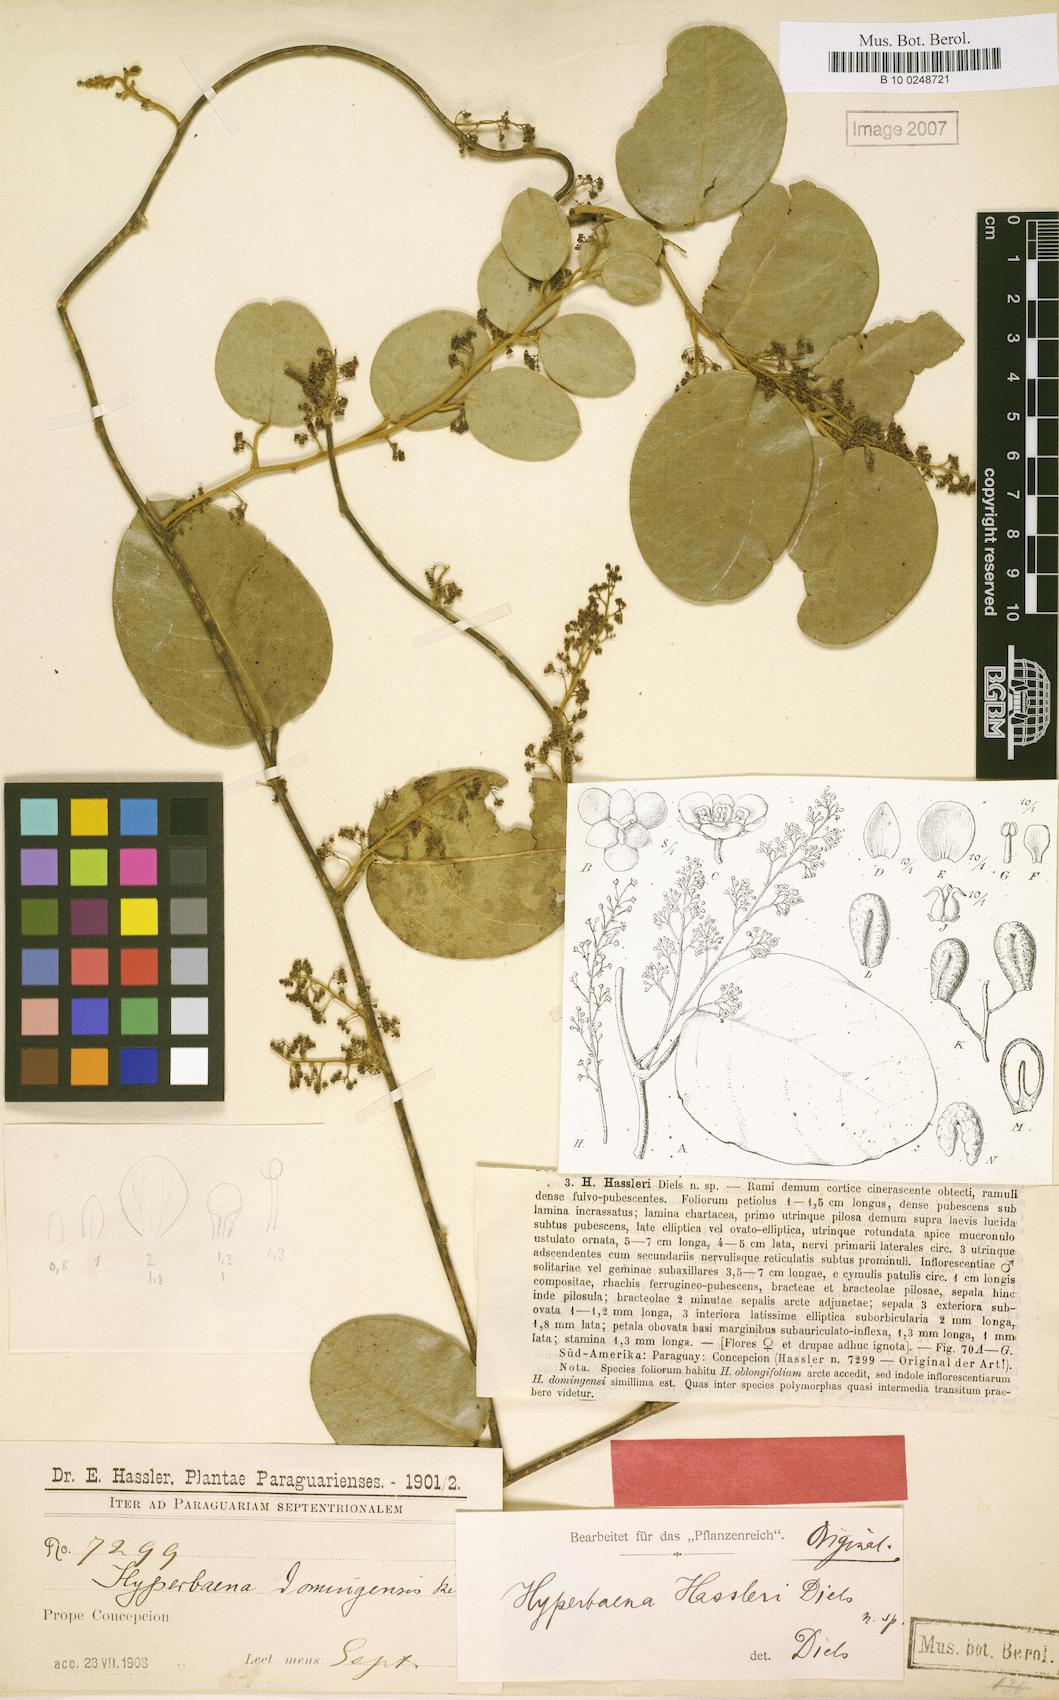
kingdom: Plantae
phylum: Tracheophyta
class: Magnoliopsida
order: Ranunculales
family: Menispermaceae
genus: Hyperbaena
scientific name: Hyperbaena hassleri
